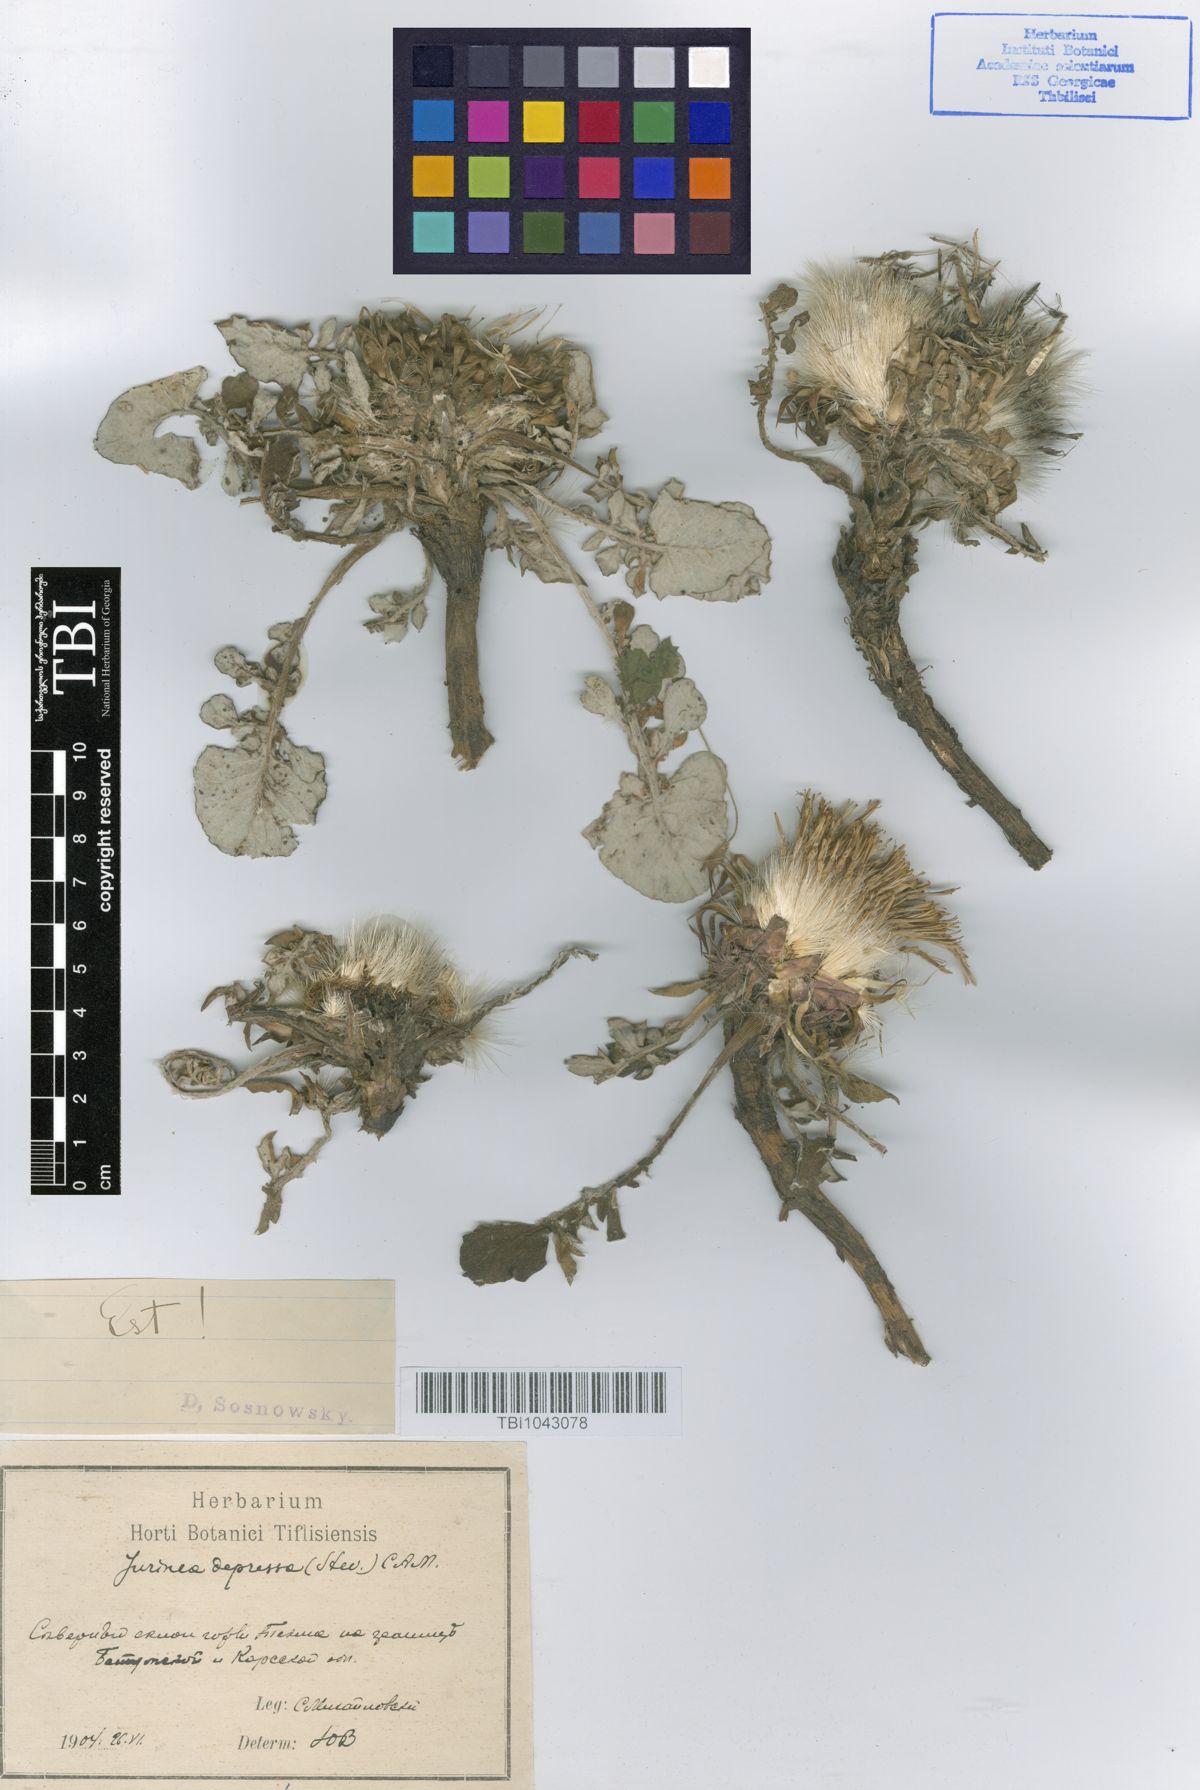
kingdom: Plantae
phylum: Tracheophyta
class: Magnoliopsida
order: Asterales
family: Asteraceae
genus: Jurinea
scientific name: Jurinea moschus
